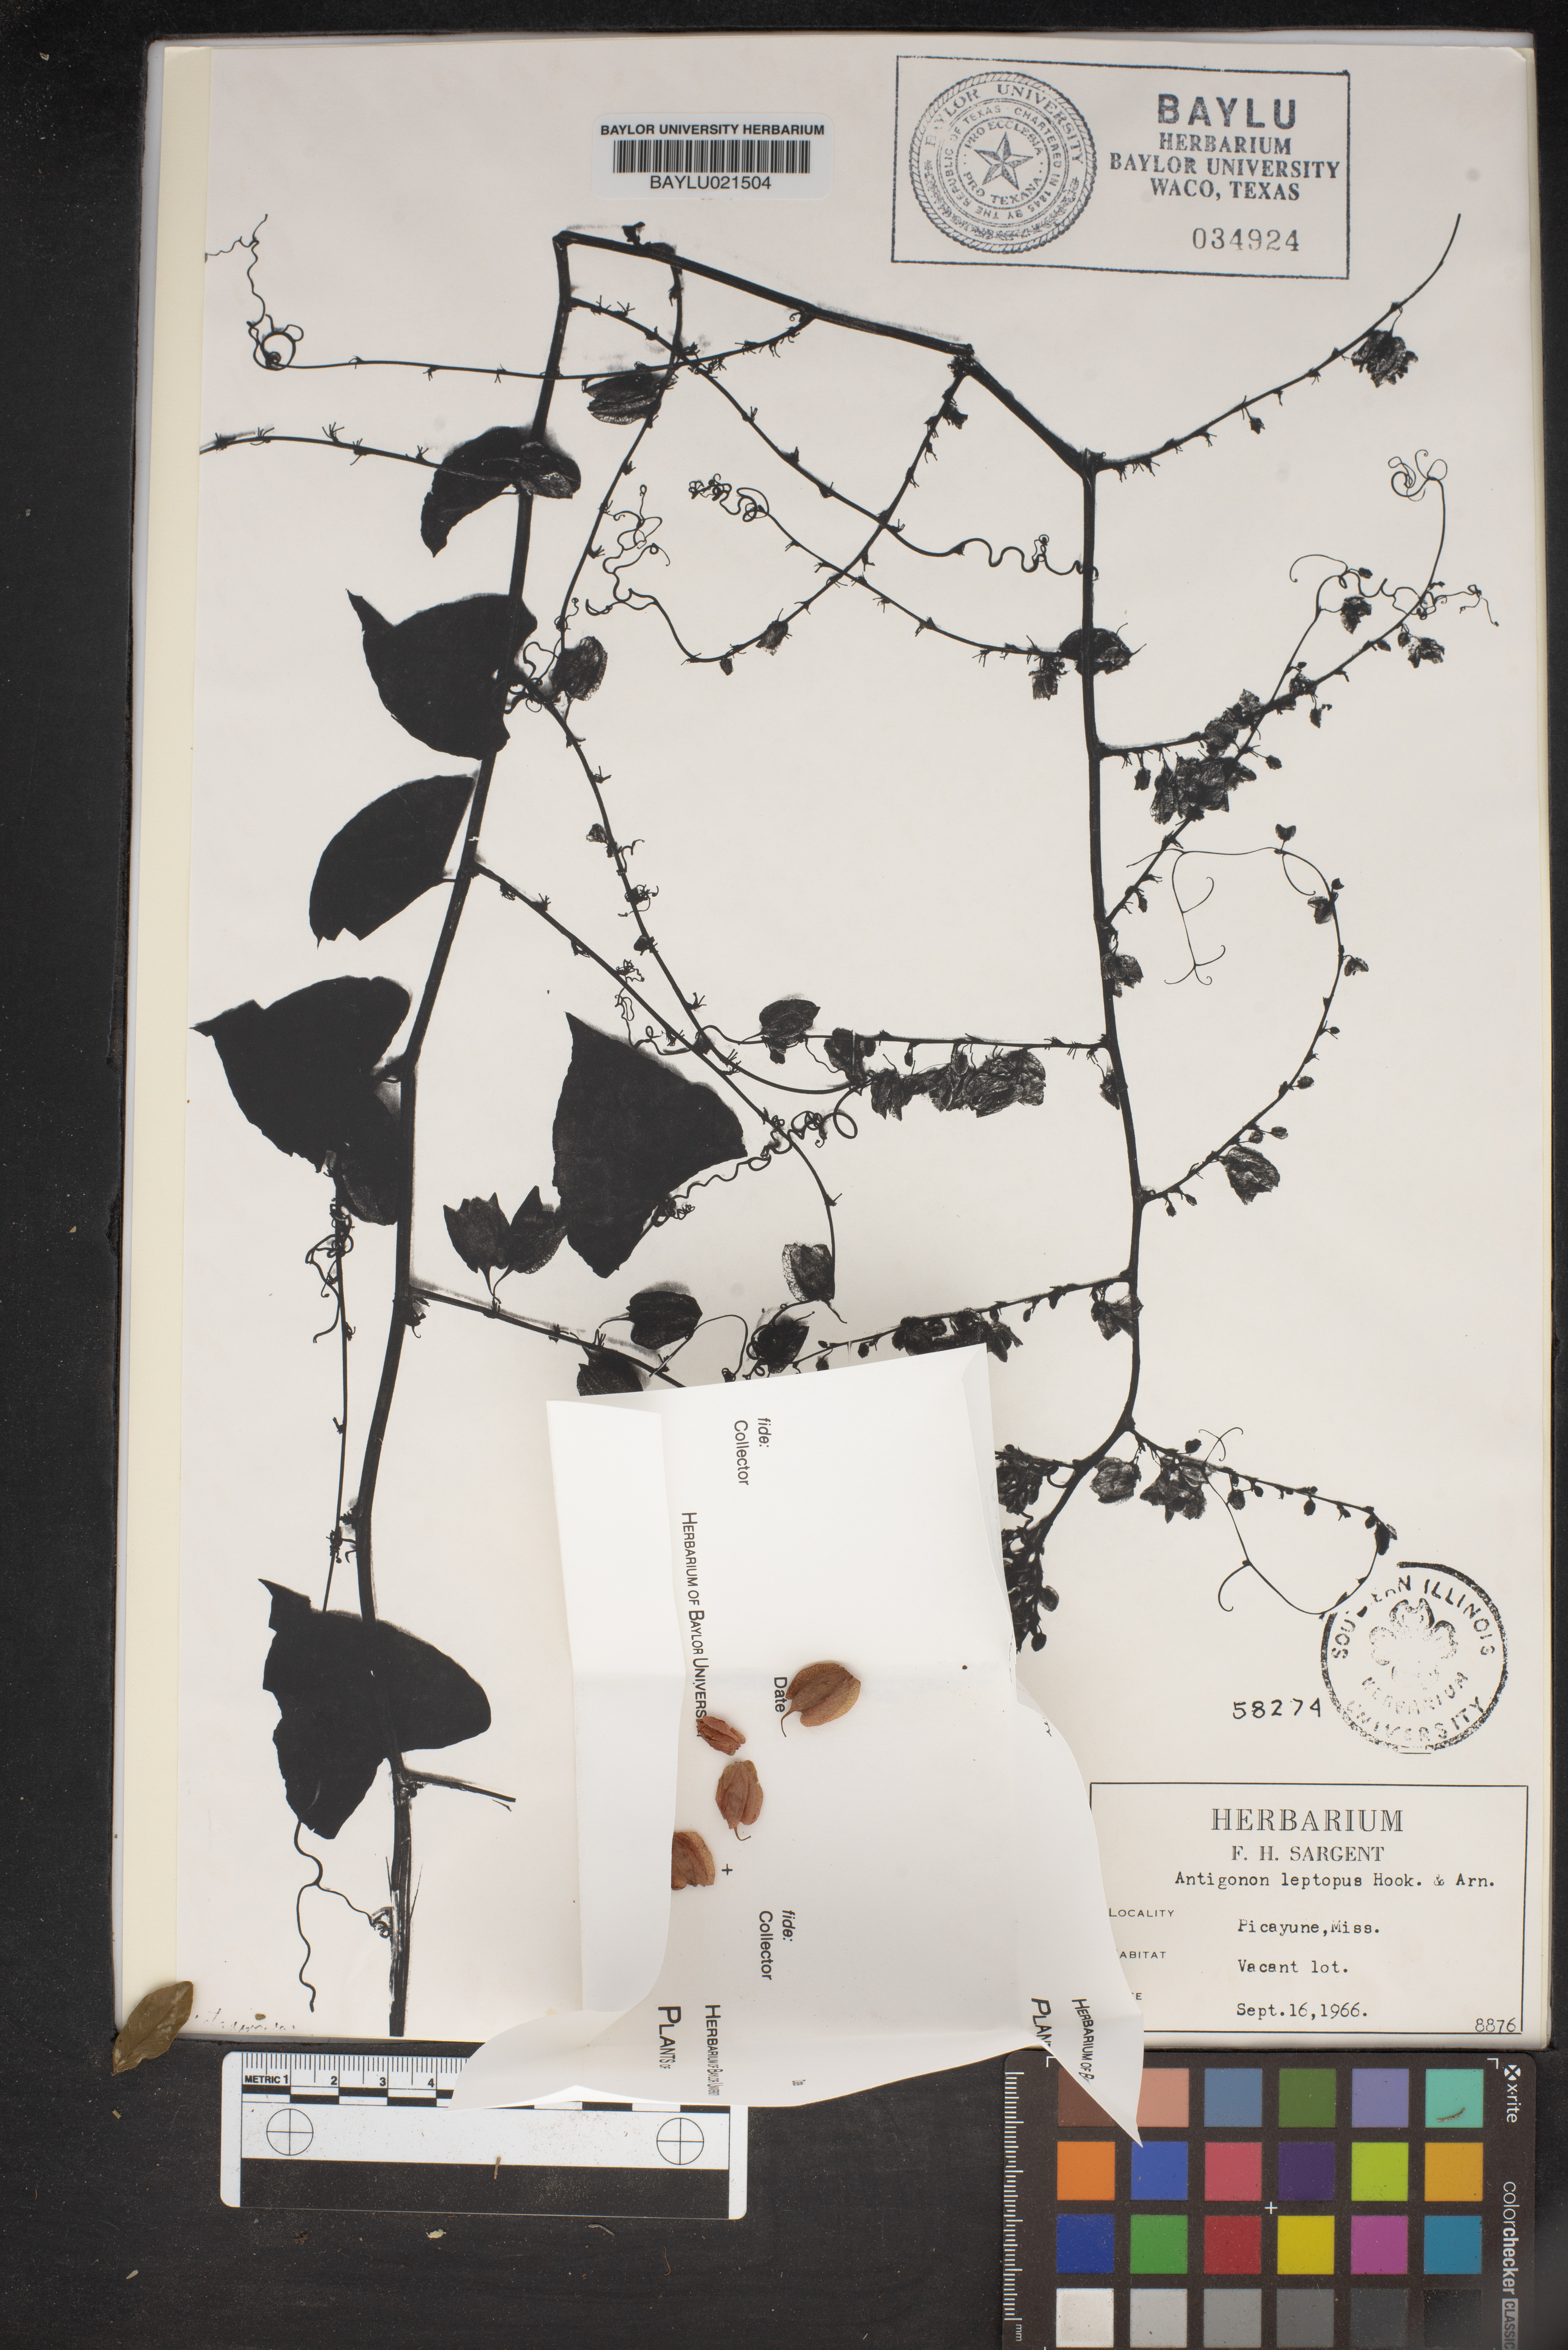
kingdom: Plantae
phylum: Tracheophyta
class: Magnoliopsida
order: Caryophyllales
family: Polygonaceae
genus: Antigonon
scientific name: Antigonon leptopus
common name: Coral vine
